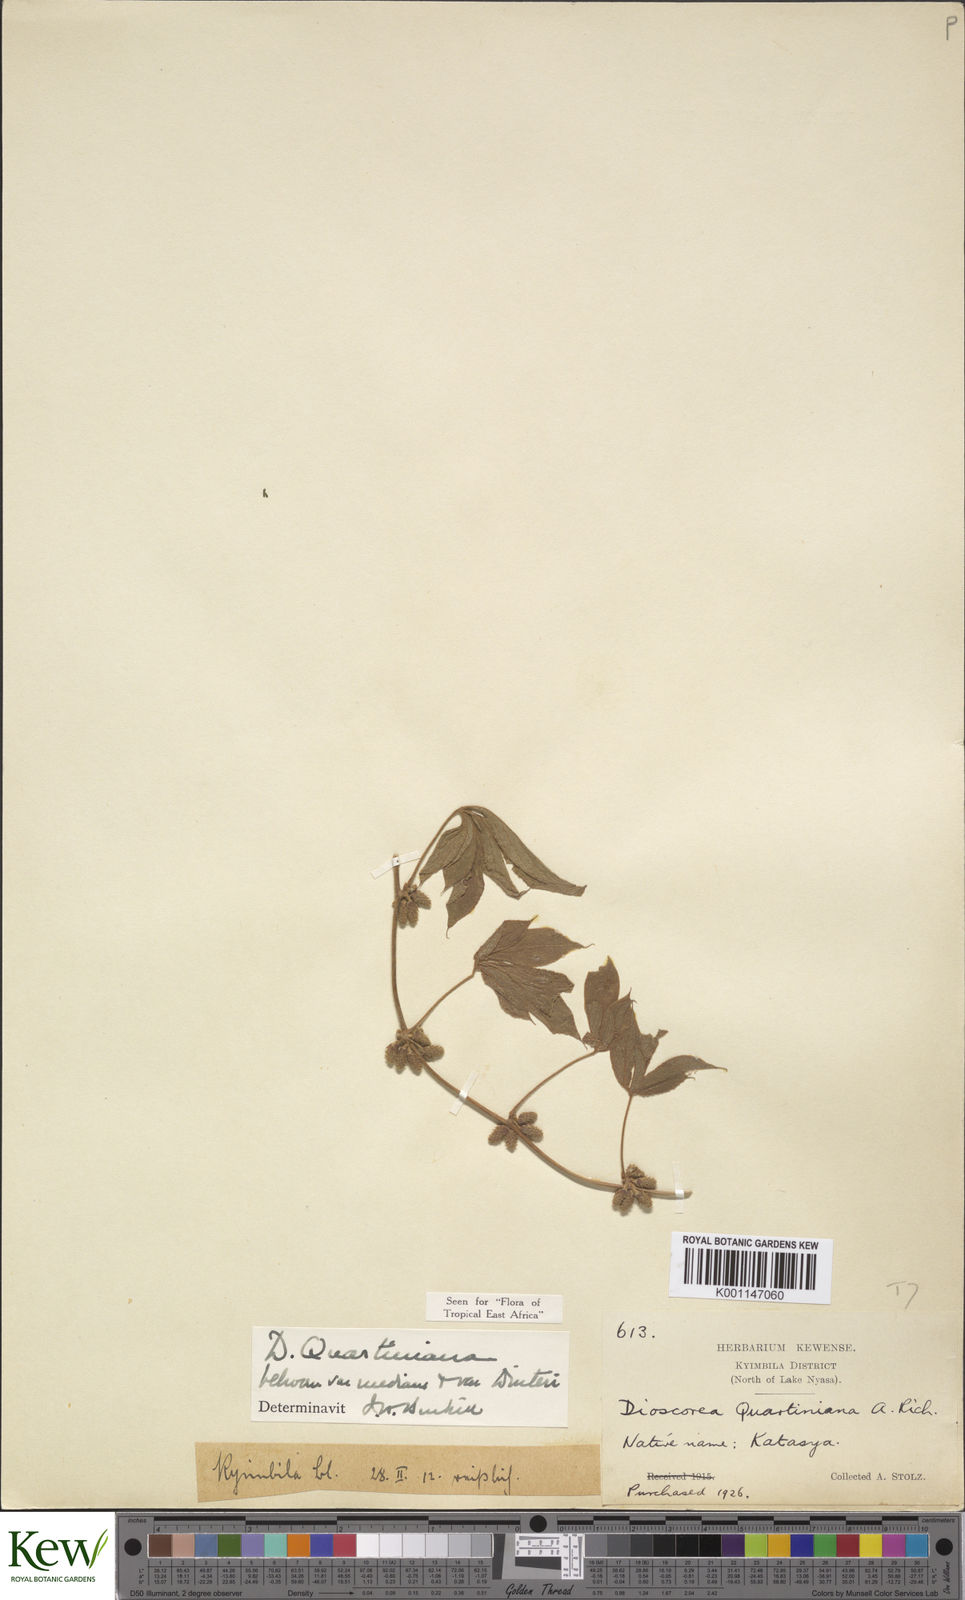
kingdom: Plantae
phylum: Tracheophyta
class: Liliopsida
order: Dioscoreales
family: Dioscoreaceae
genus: Dioscorea
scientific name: Dioscorea quartiniana
